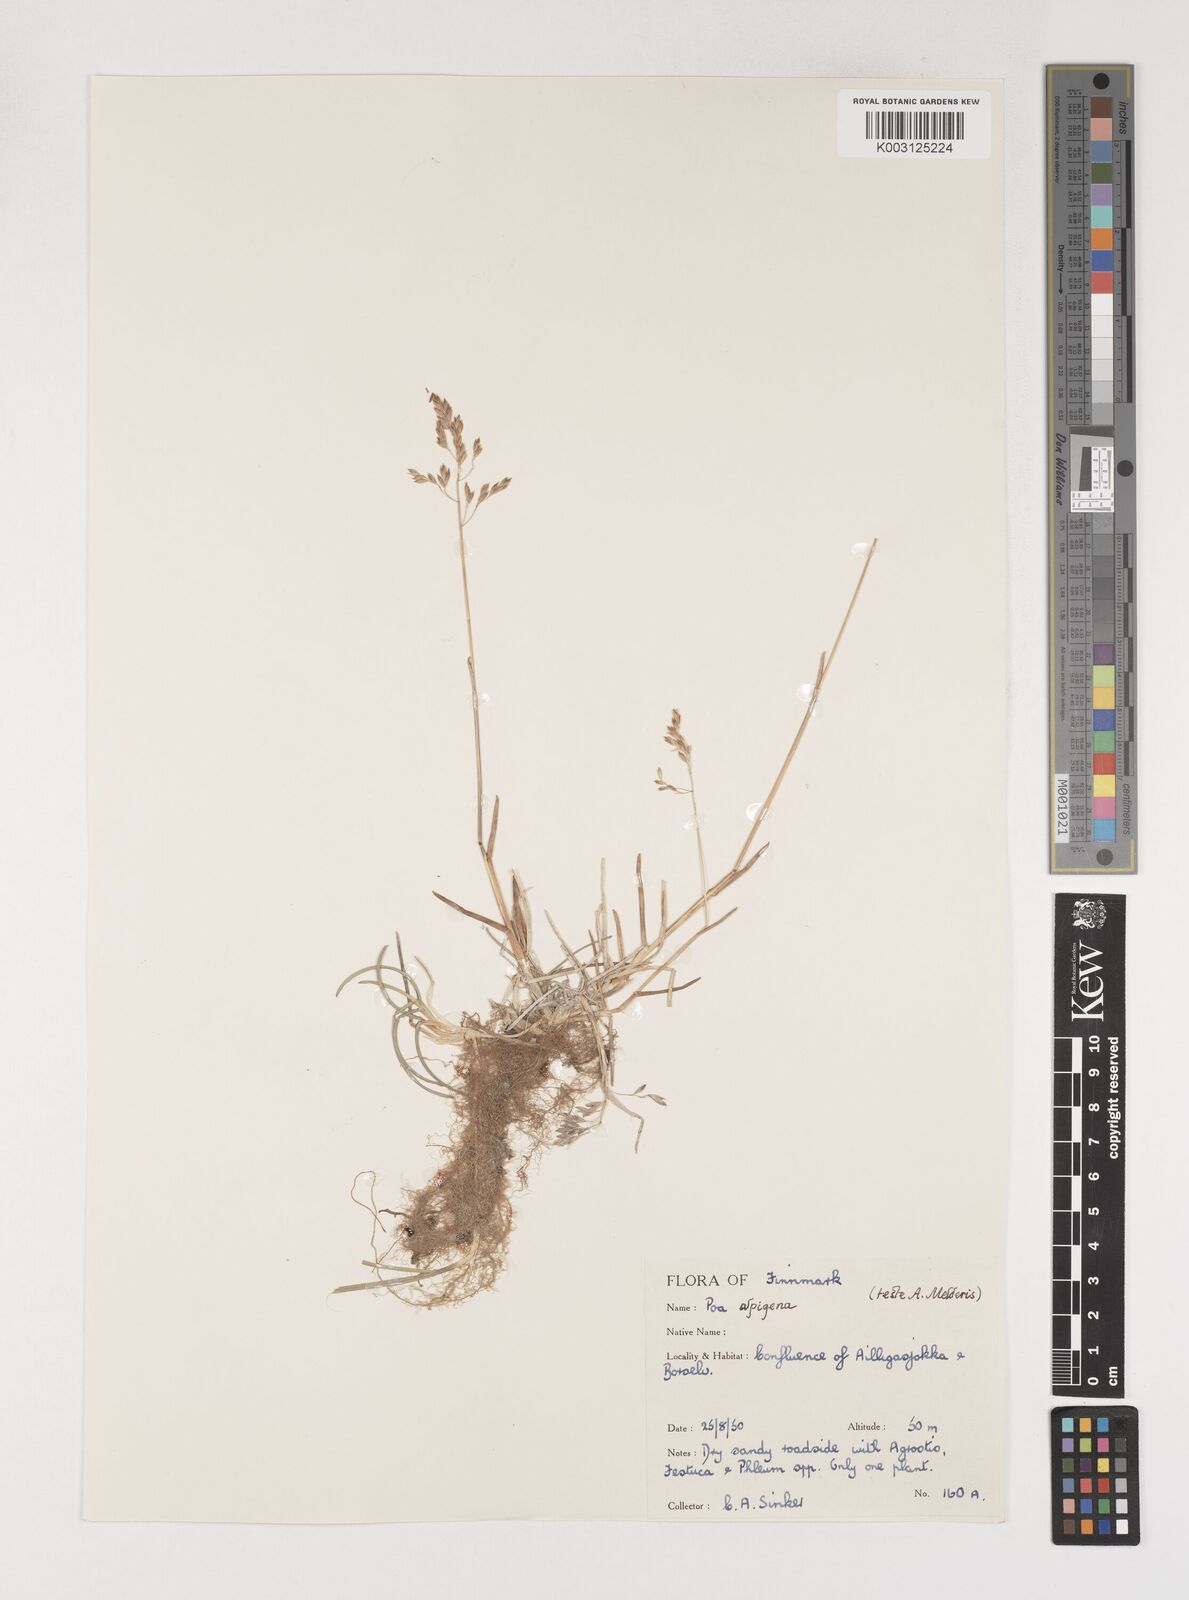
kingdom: Plantae
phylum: Tracheophyta
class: Liliopsida
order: Poales
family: Poaceae
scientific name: Poaceae
